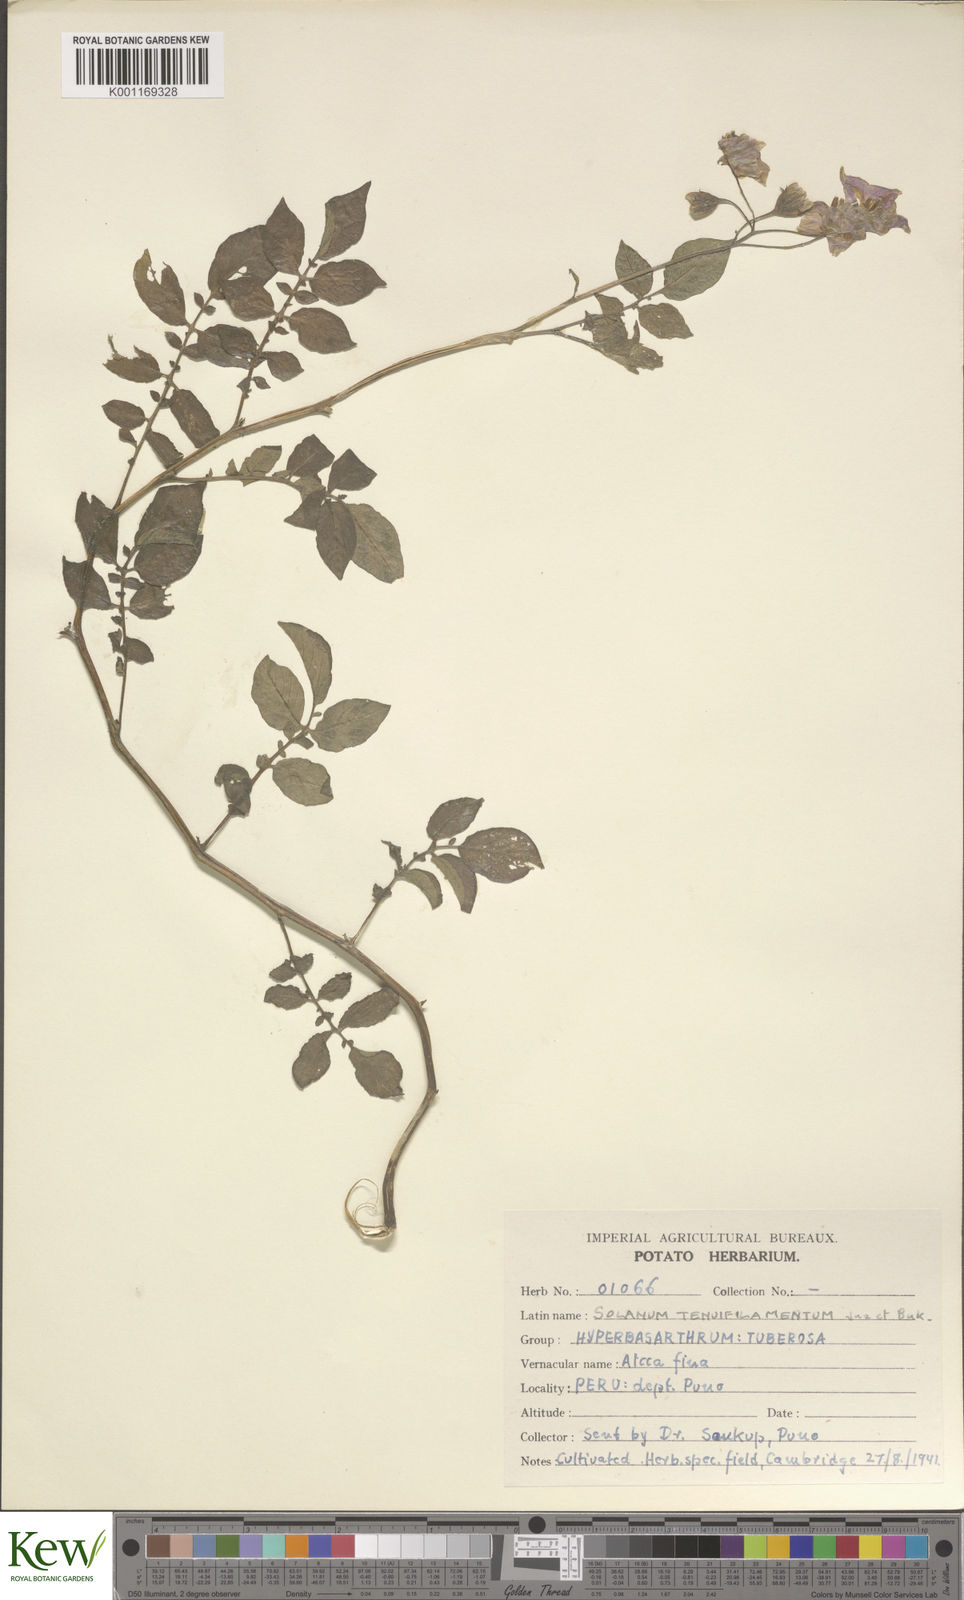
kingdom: Plantae
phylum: Tracheophyta
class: Magnoliopsida
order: Solanales
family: Solanaceae
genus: Solanum
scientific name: Solanum chaucha
